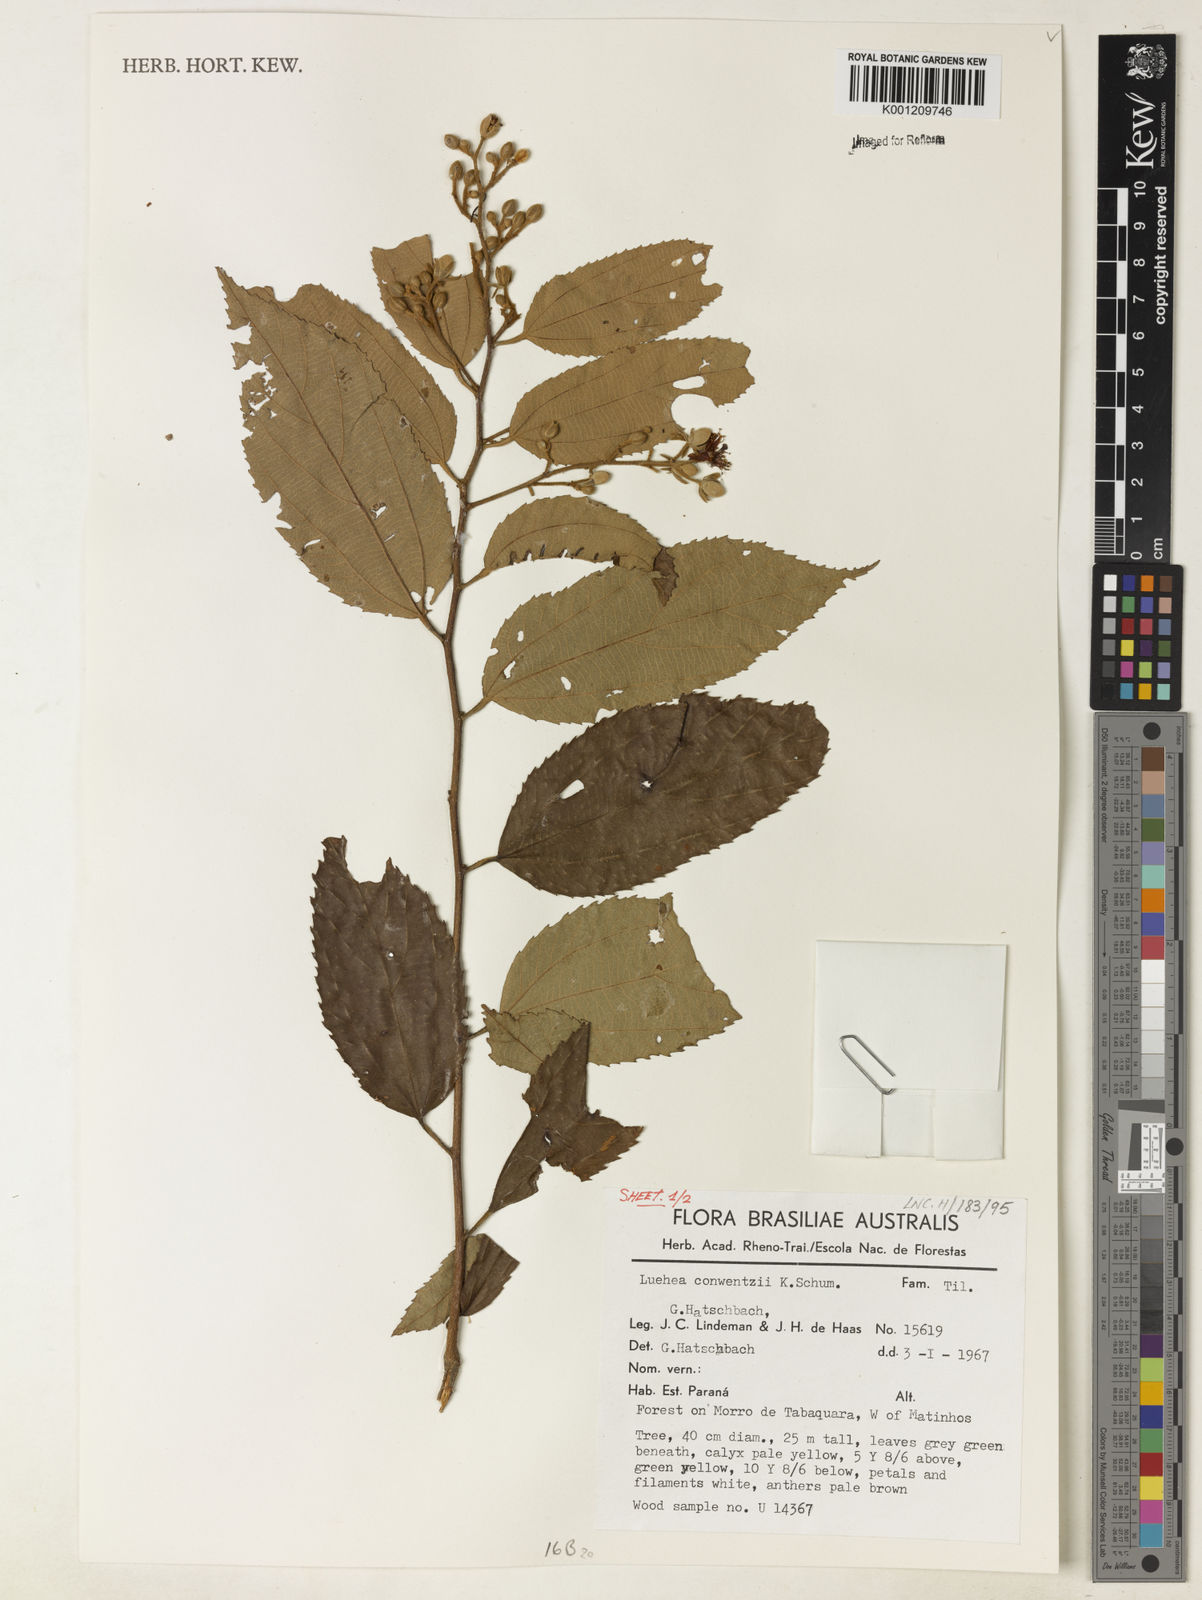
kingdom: Plantae
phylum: Tracheophyta
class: Magnoliopsida
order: Malvales
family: Malvaceae
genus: Luehea
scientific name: Luehea
